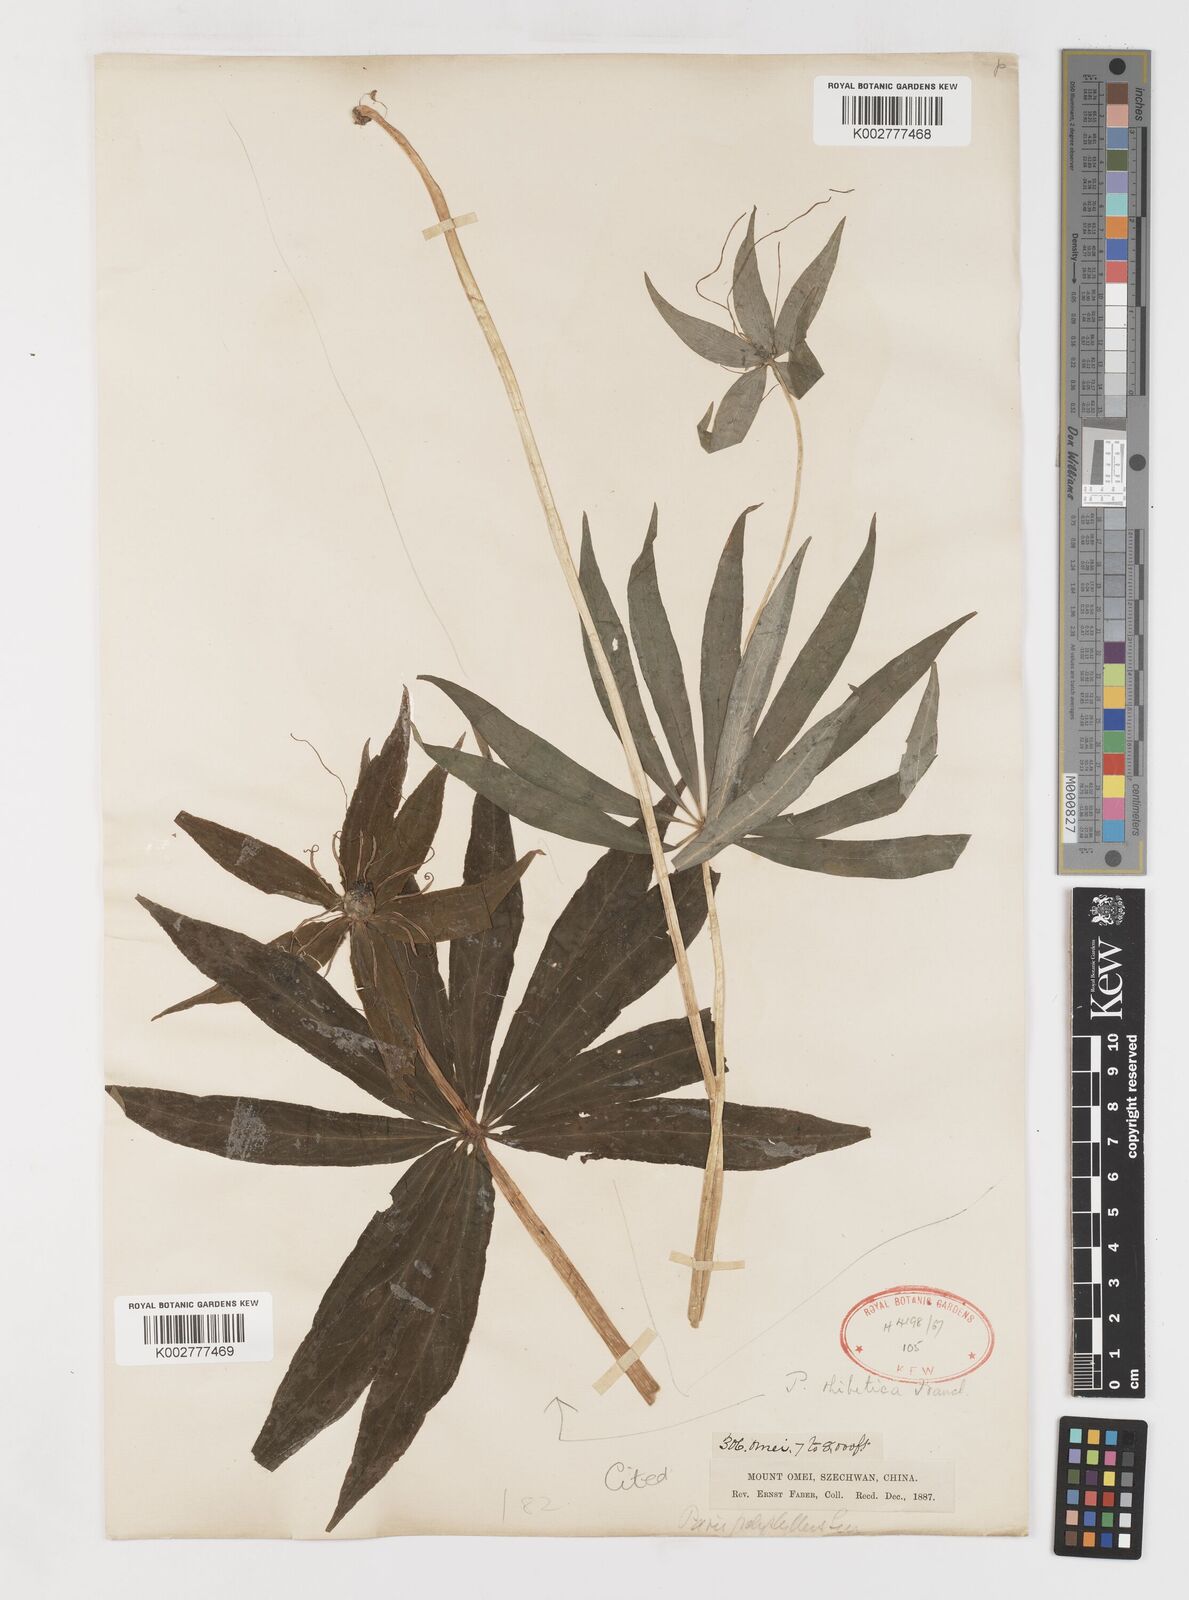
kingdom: Plantae
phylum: Tracheophyta
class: Liliopsida
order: Liliales
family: Melanthiaceae
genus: Paris
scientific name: Paris thibetica
